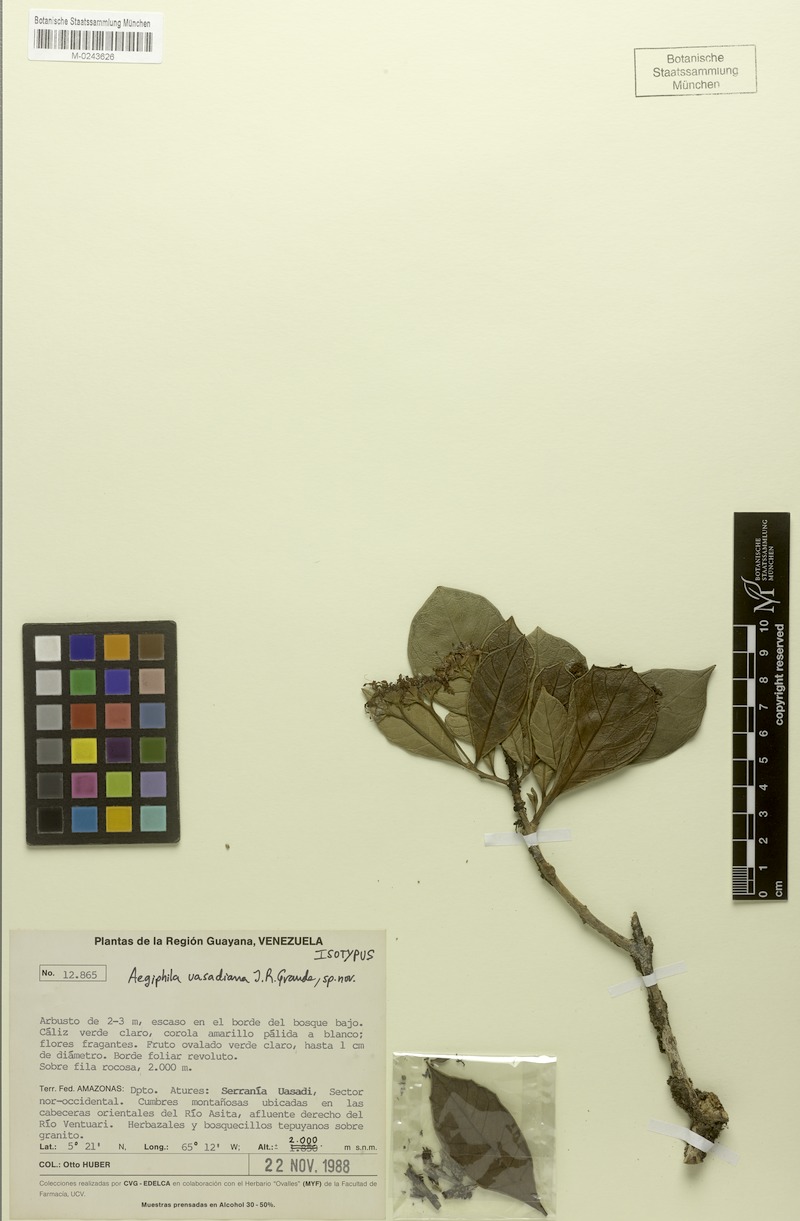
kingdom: Plantae
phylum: Tracheophyta
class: Magnoliopsida
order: Lamiales
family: Lamiaceae
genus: Aegiphila
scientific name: Aegiphila uasadiana
